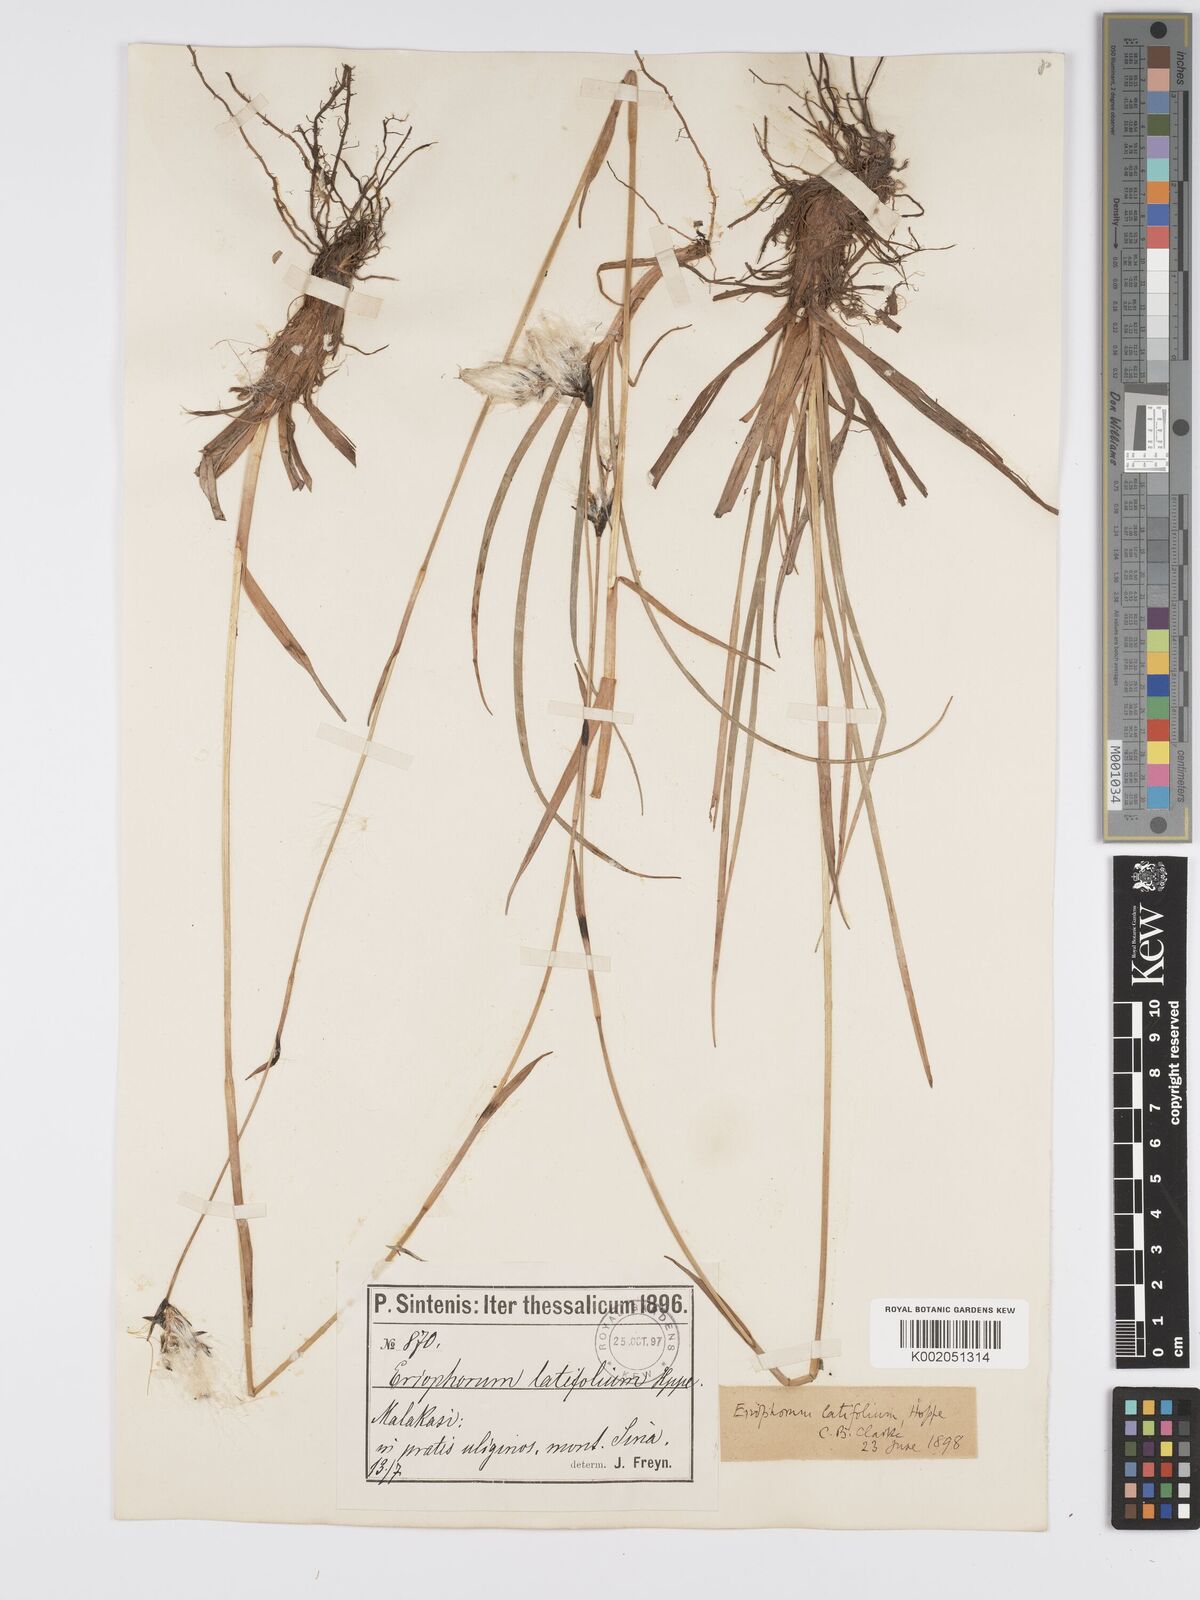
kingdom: Plantae
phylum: Tracheophyta
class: Liliopsida
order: Poales
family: Cyperaceae
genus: Eriophorum
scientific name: Eriophorum latifolium
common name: Broad-leaved cottongrass
